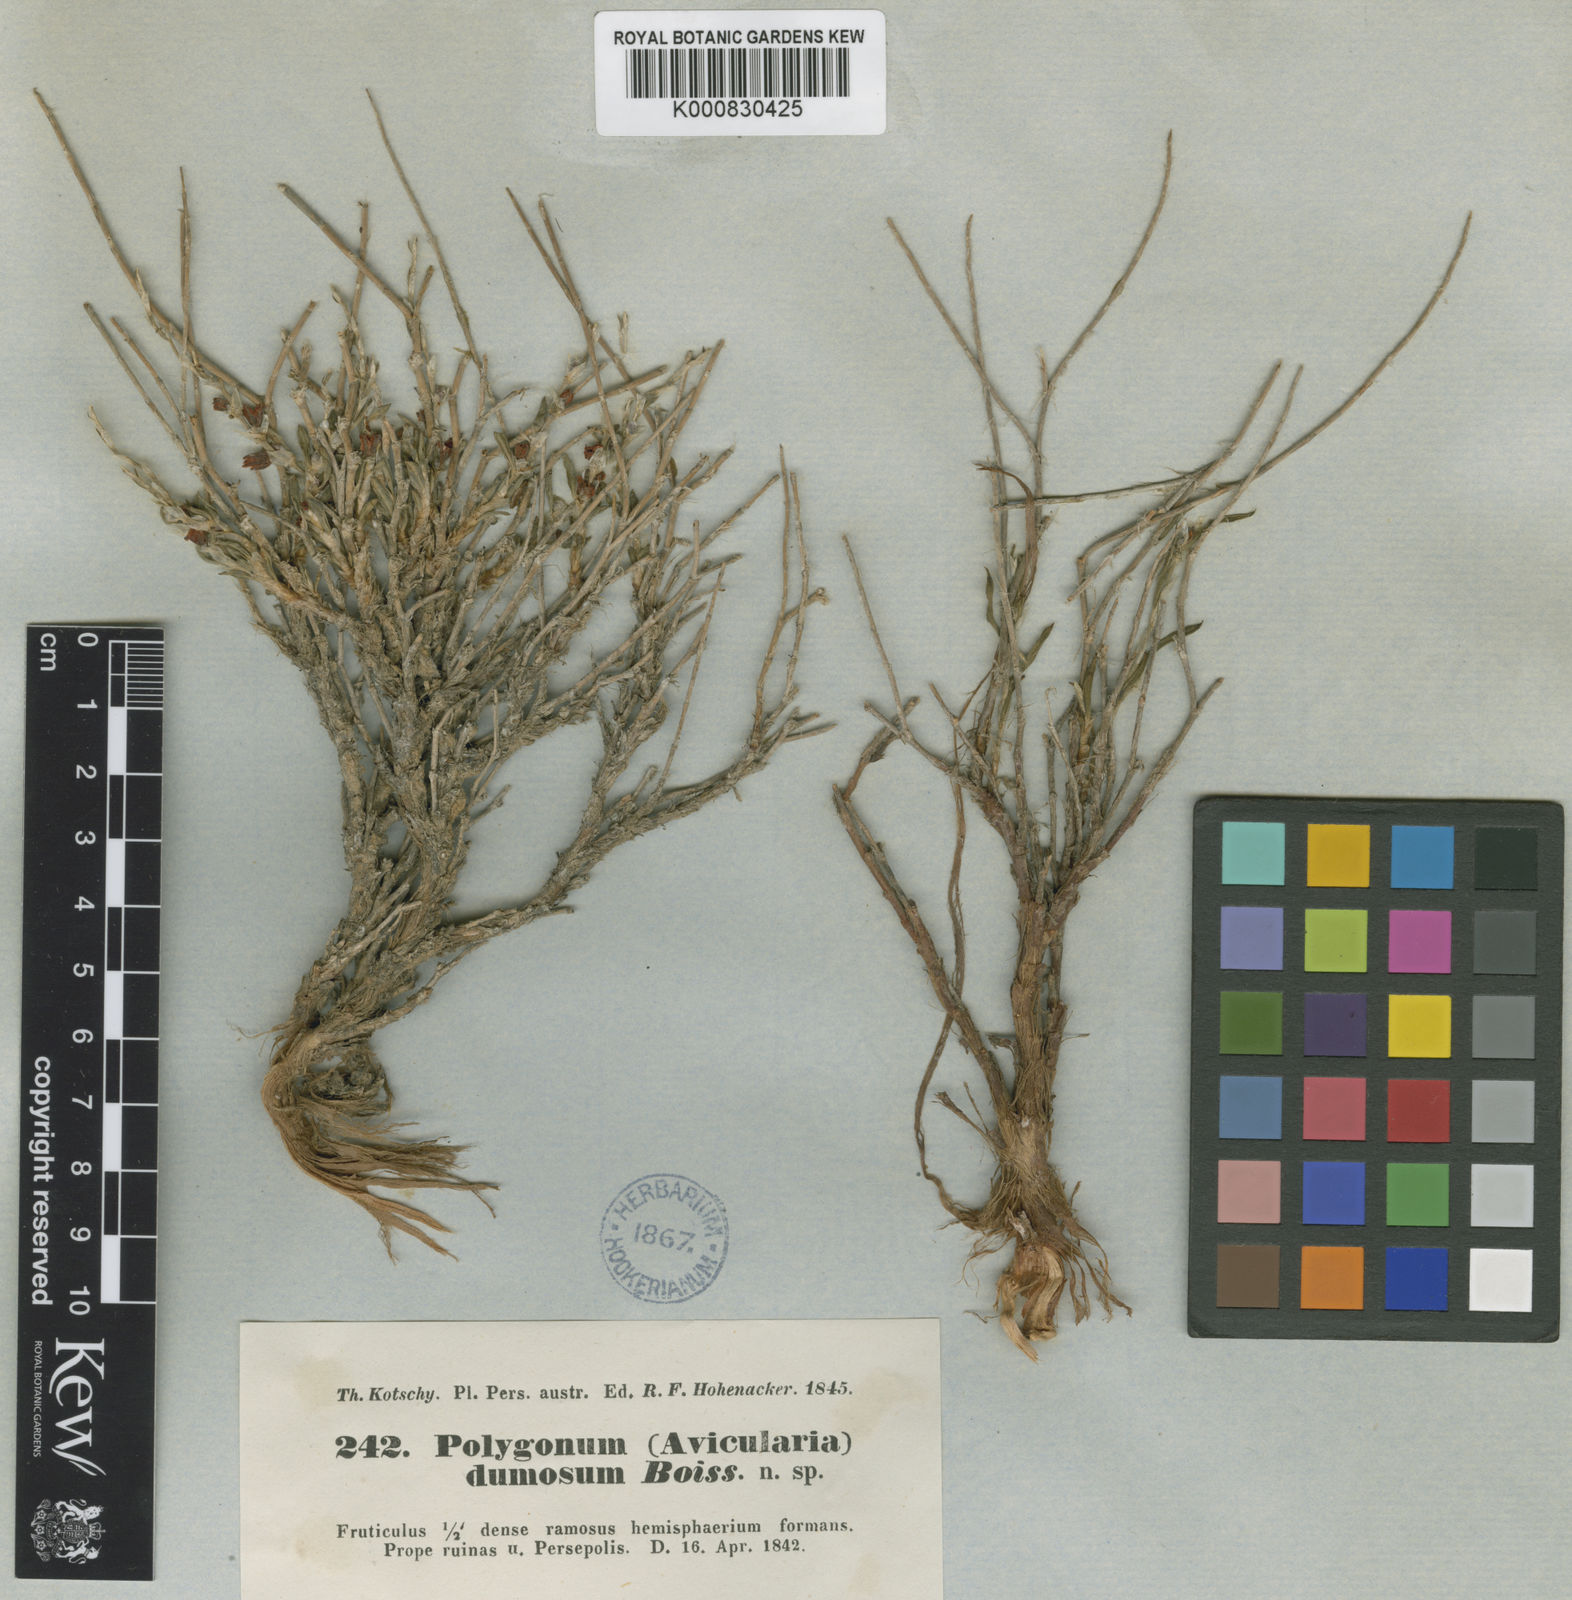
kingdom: Plantae
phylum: Tracheophyta
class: Magnoliopsida
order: Caryophyllales
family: Polygonaceae
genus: Atraphaxis
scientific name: Atraphaxis dumosa
